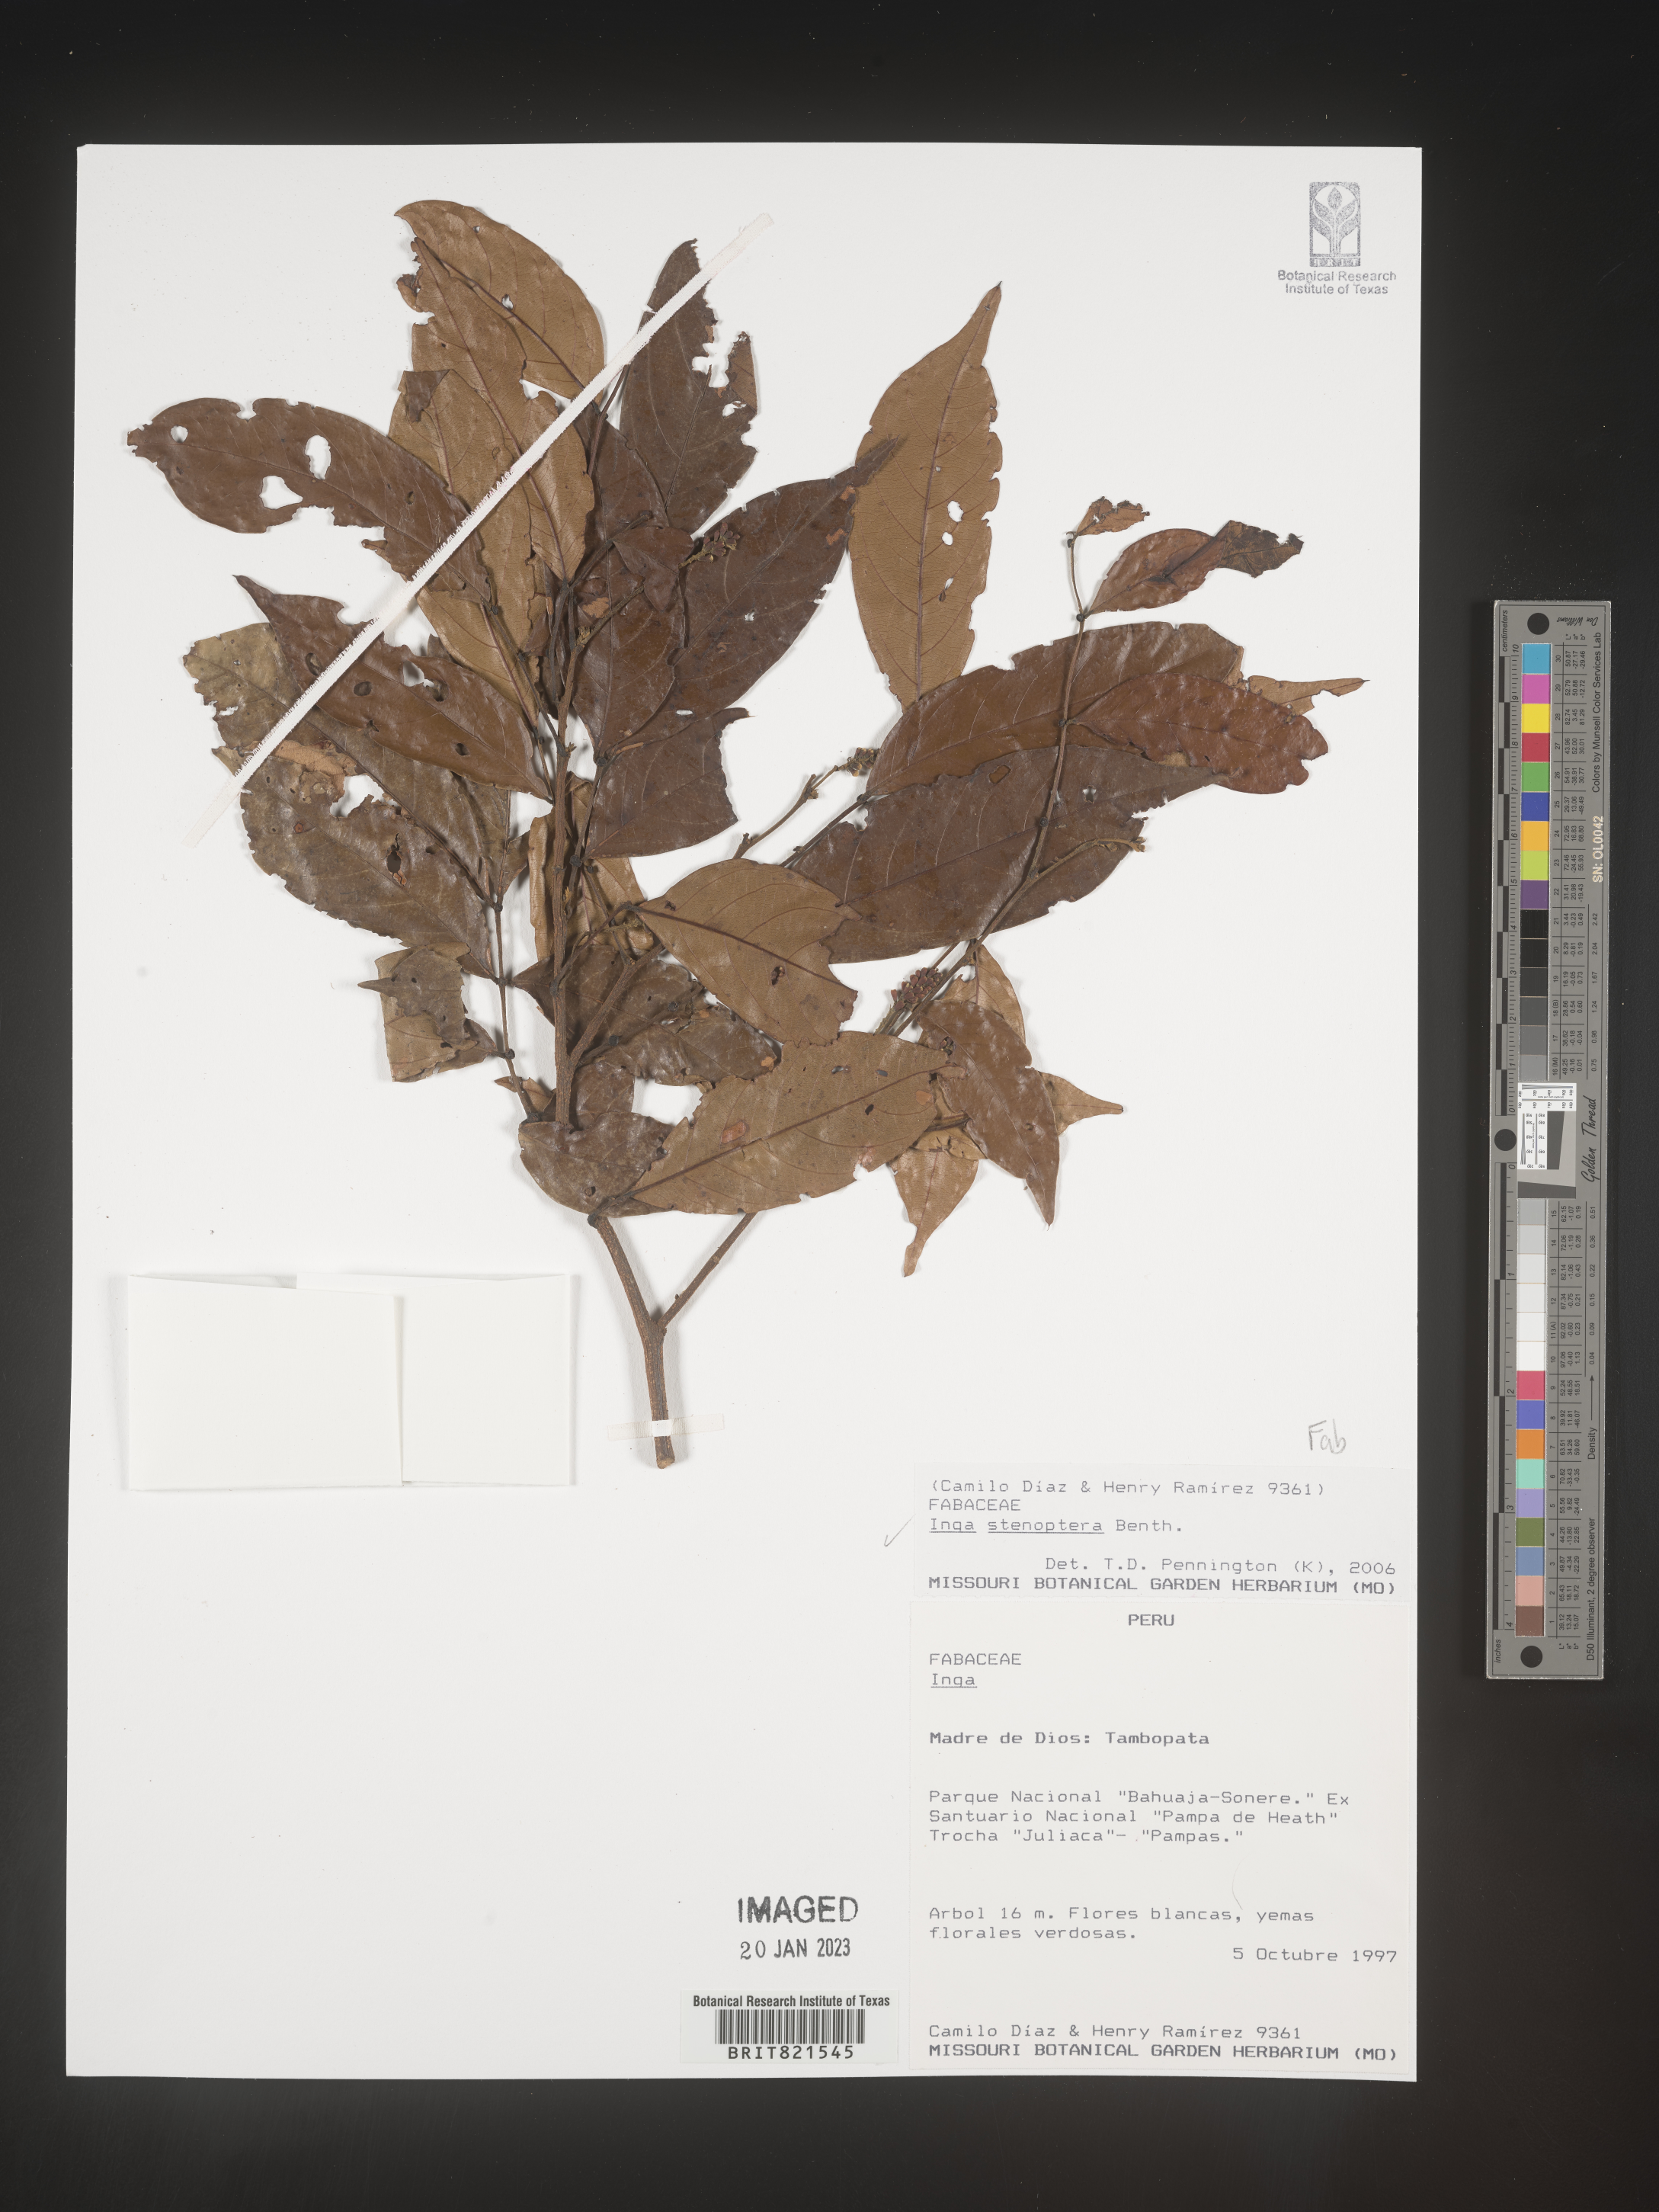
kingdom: Plantae
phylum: Tracheophyta
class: Magnoliopsida
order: Fabales
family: Fabaceae
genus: Inga
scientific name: Inga
